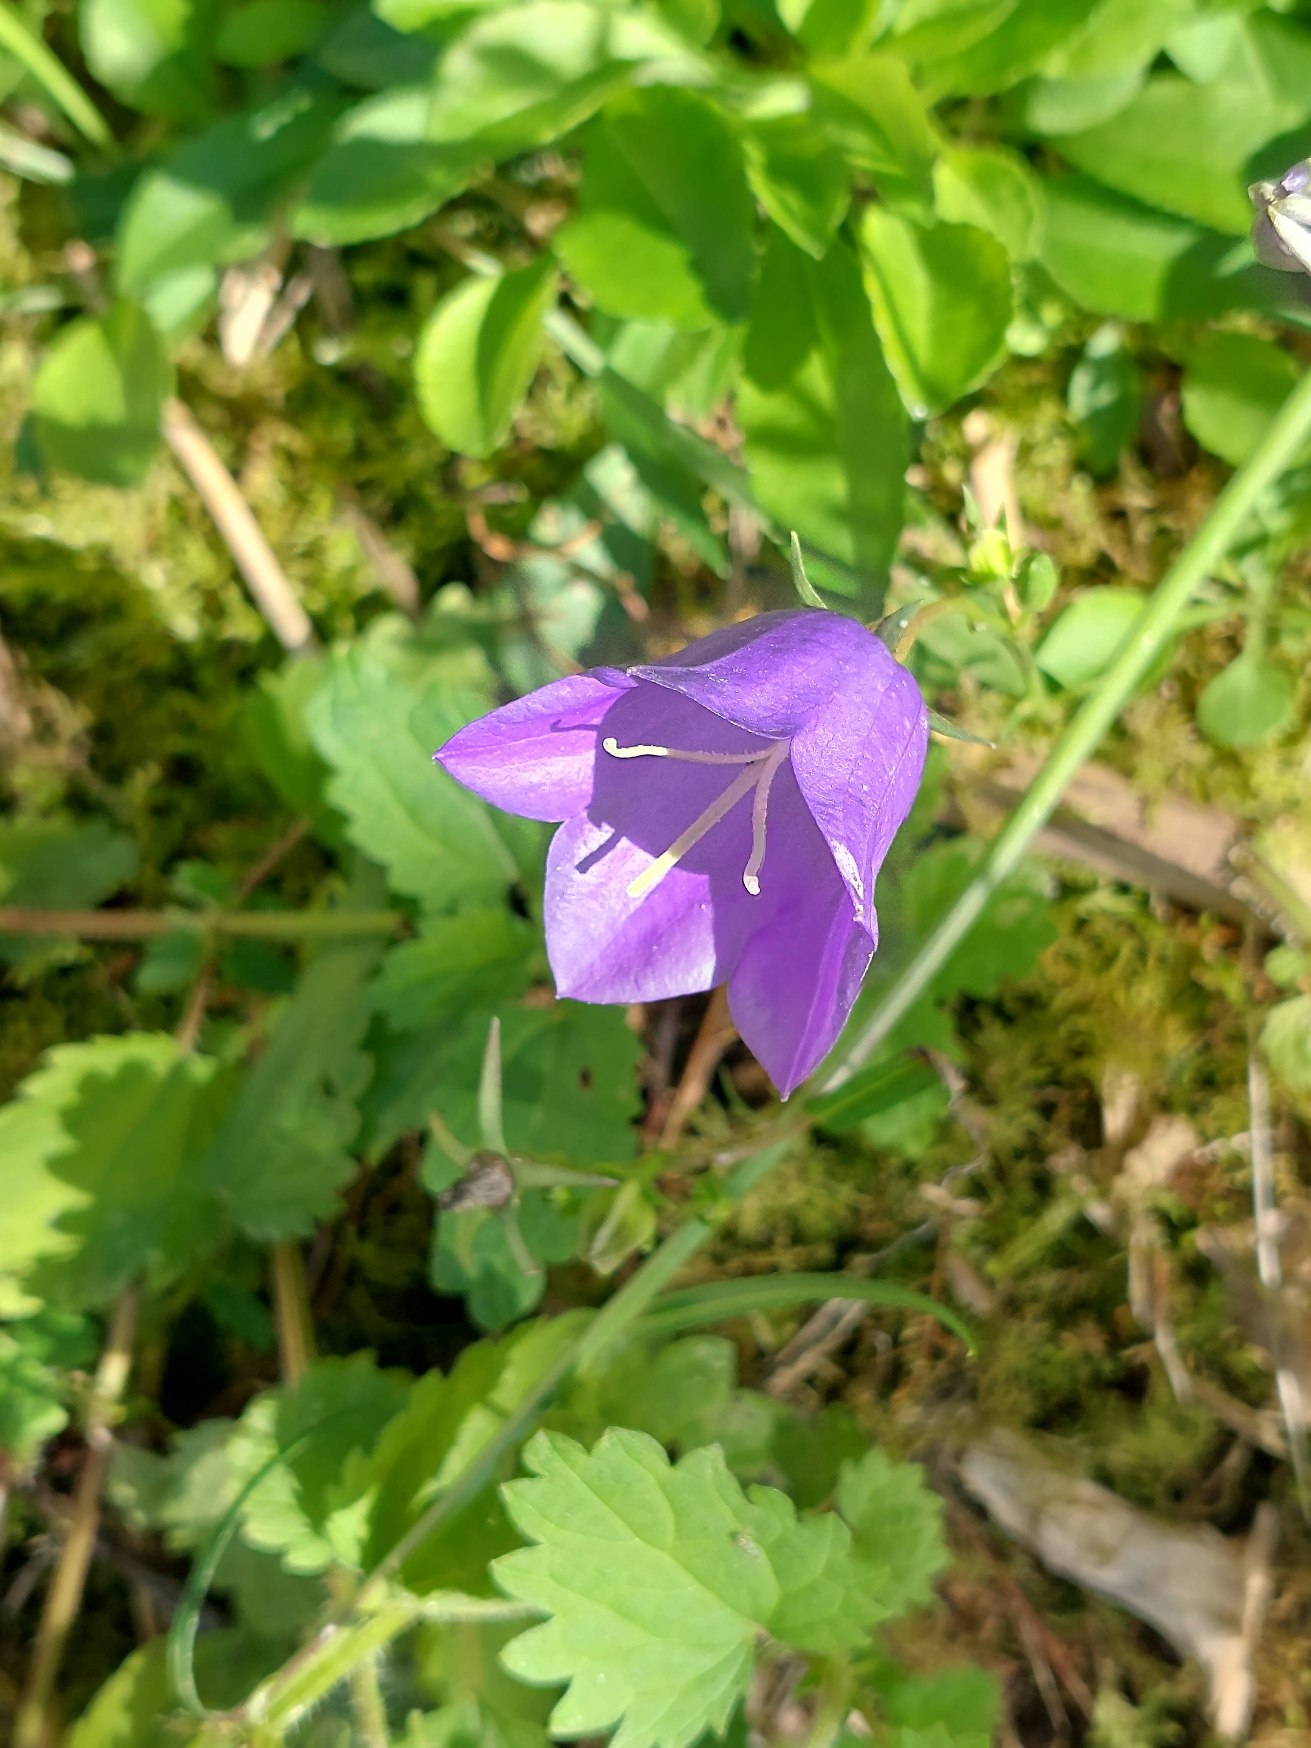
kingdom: Plantae
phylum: Tracheophyta
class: Magnoliopsida
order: Asterales
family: Campanulaceae
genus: Campanula
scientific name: Campanula persicifolia
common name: Smalbladet klokke
